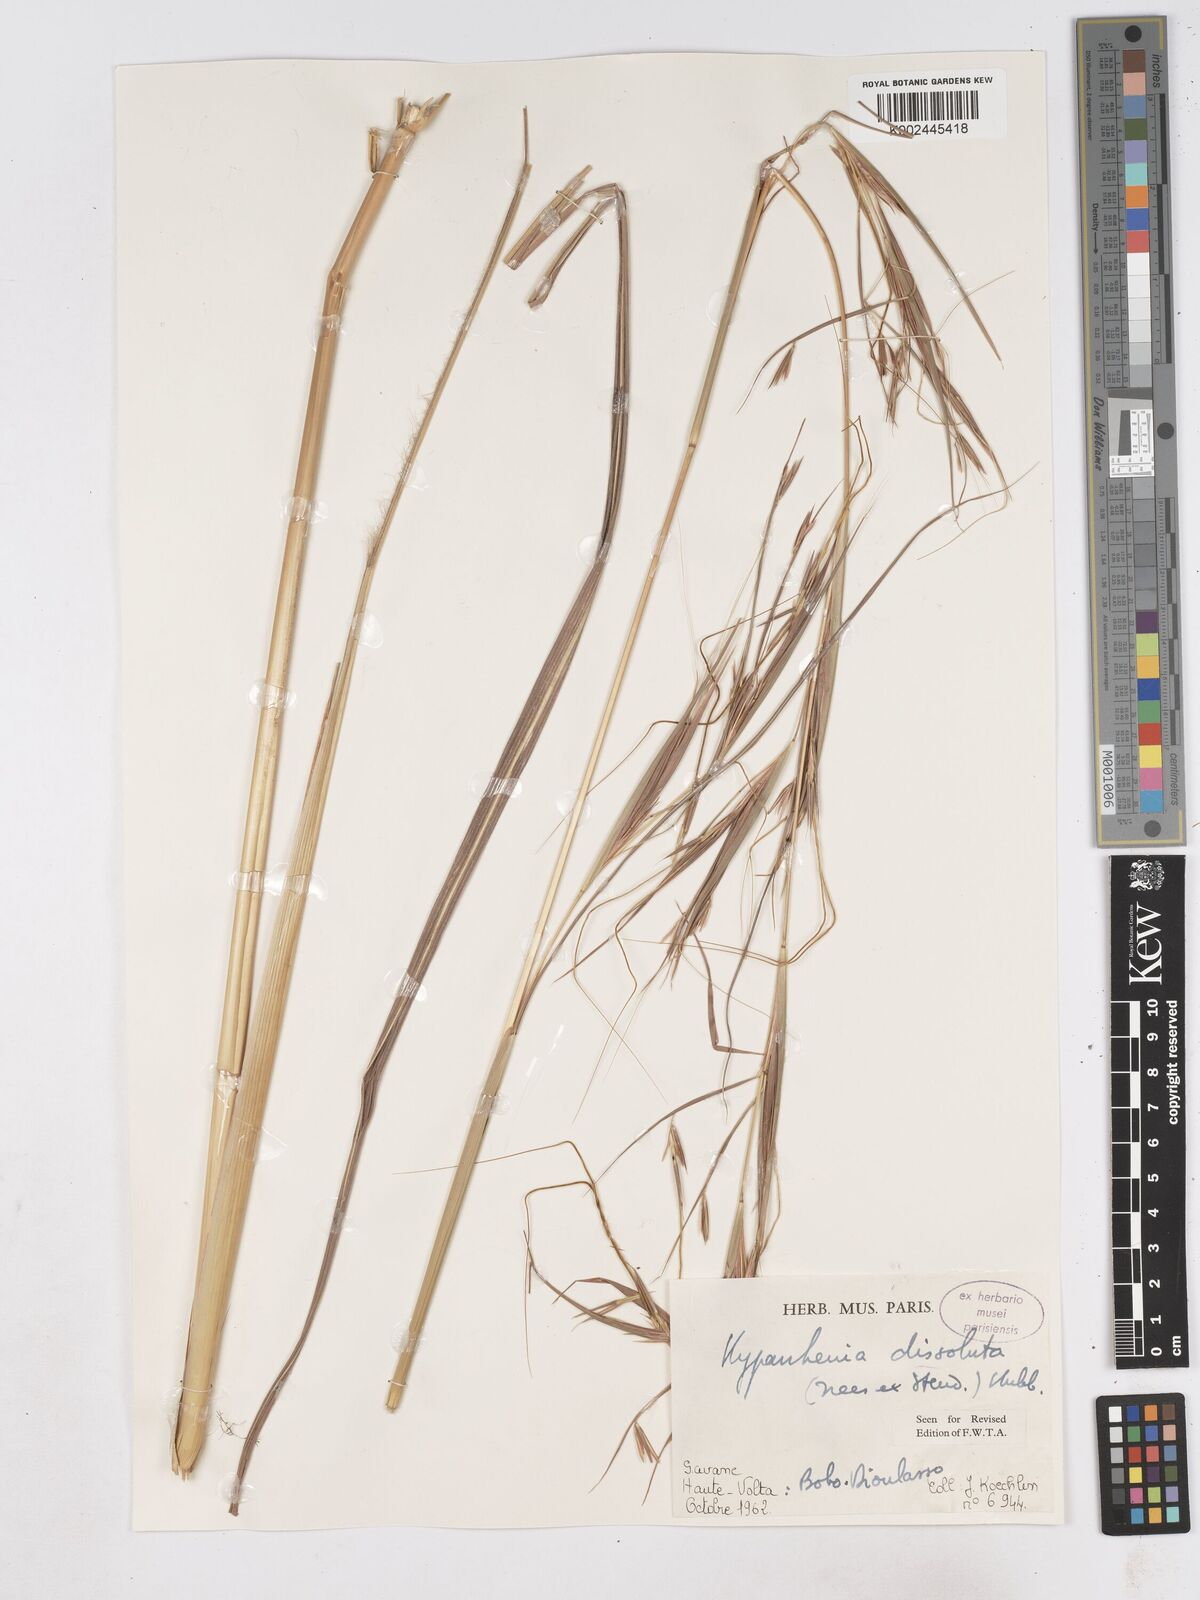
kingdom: Plantae
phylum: Tracheophyta
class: Liliopsida
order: Poales
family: Poaceae
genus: Hyperthelia
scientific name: Hyperthelia dissoluta
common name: Yellow thatching grass
